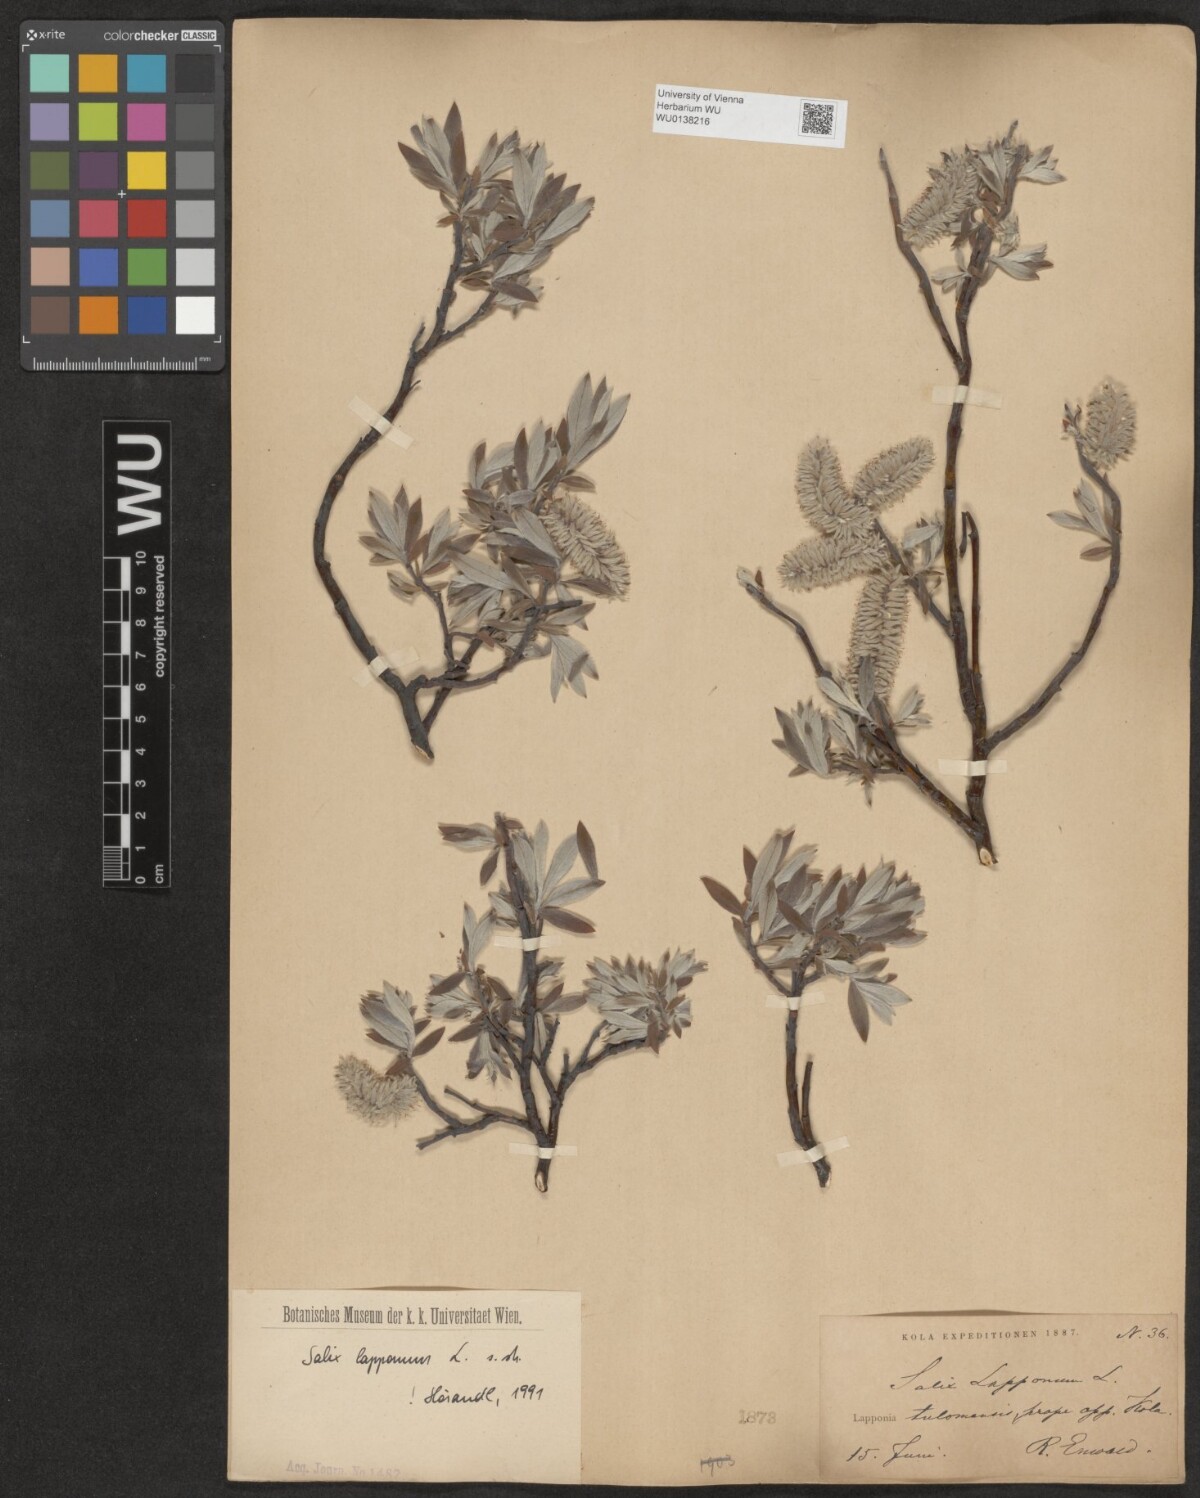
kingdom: Plantae
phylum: Tracheophyta
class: Magnoliopsida
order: Malpighiales
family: Salicaceae
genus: Salix
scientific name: Salix lapponum
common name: Downy willow
